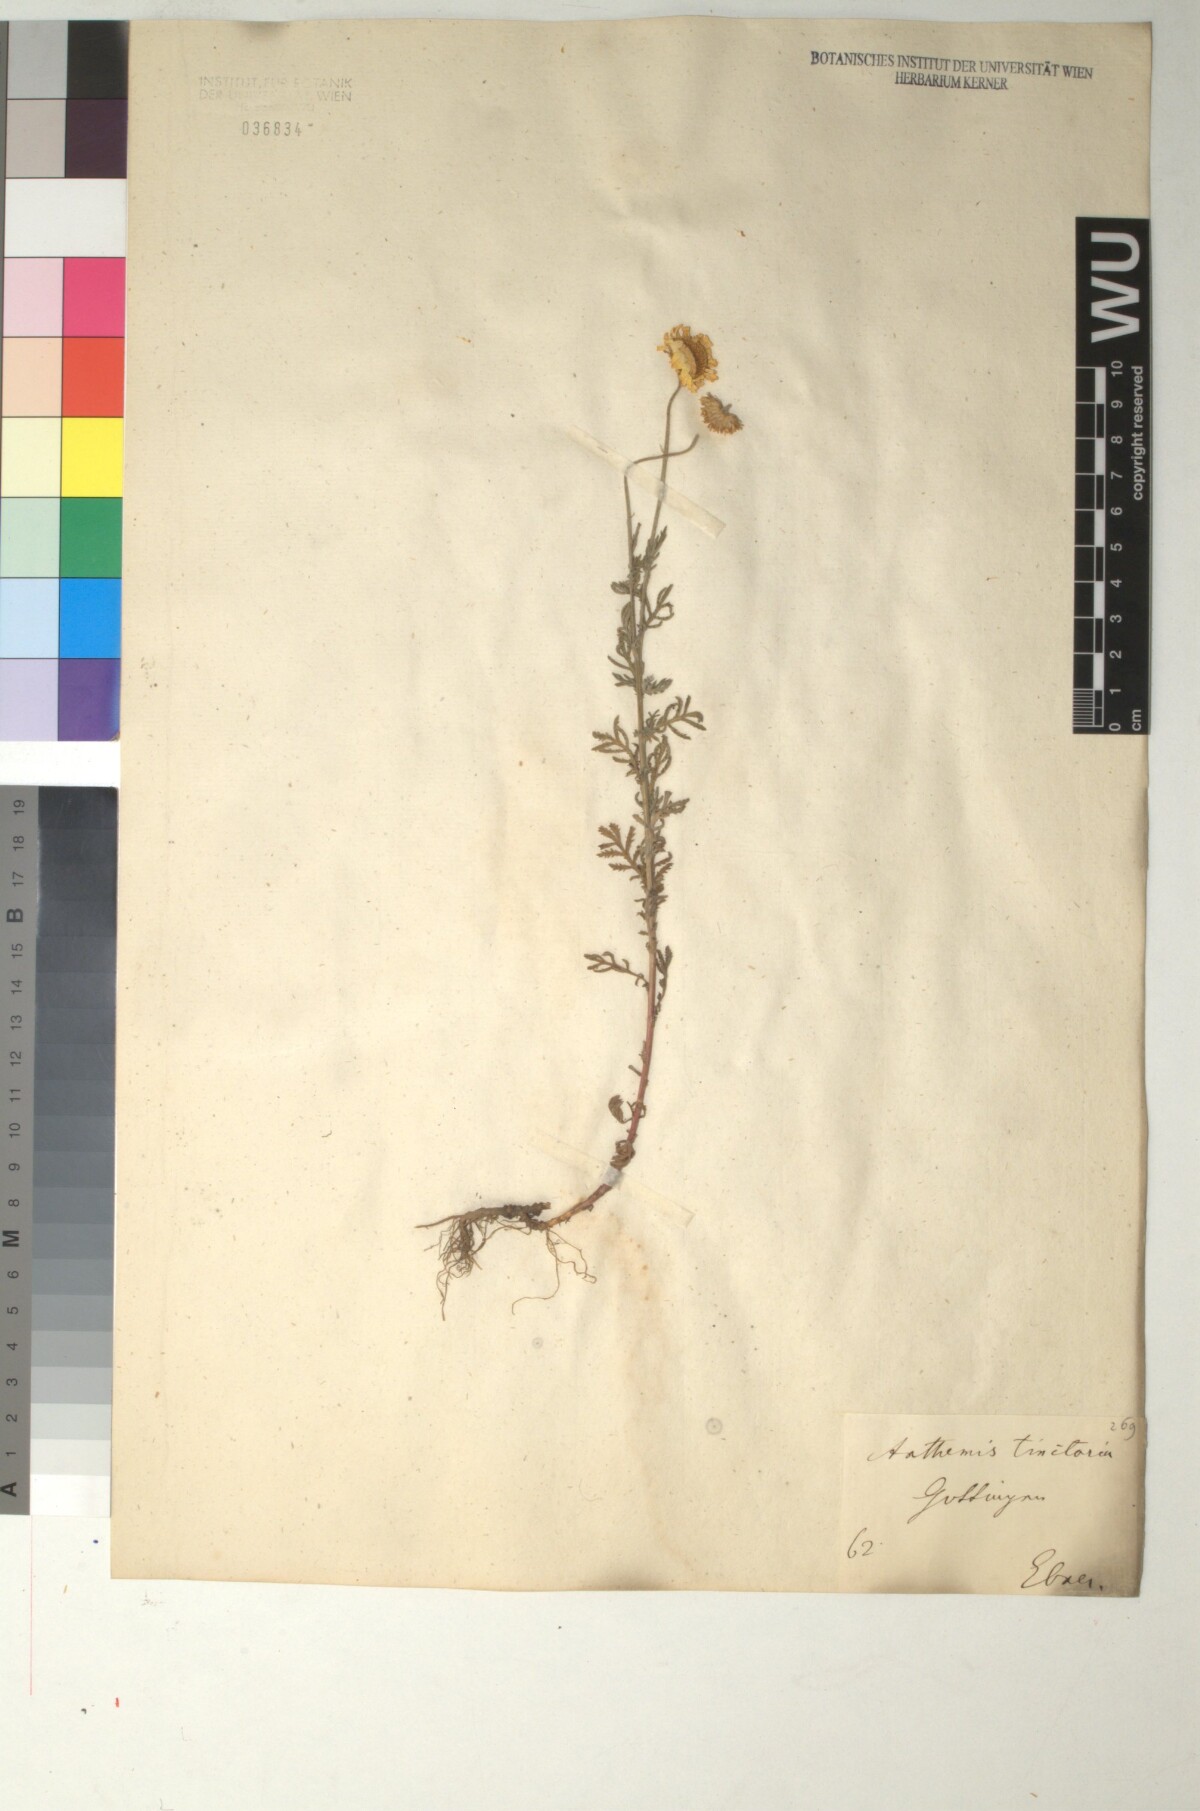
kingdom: Plantae
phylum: Tracheophyta
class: Magnoliopsida
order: Asterales
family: Asteraceae
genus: Cota
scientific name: Cota tinctoria
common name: Golden chamomile
